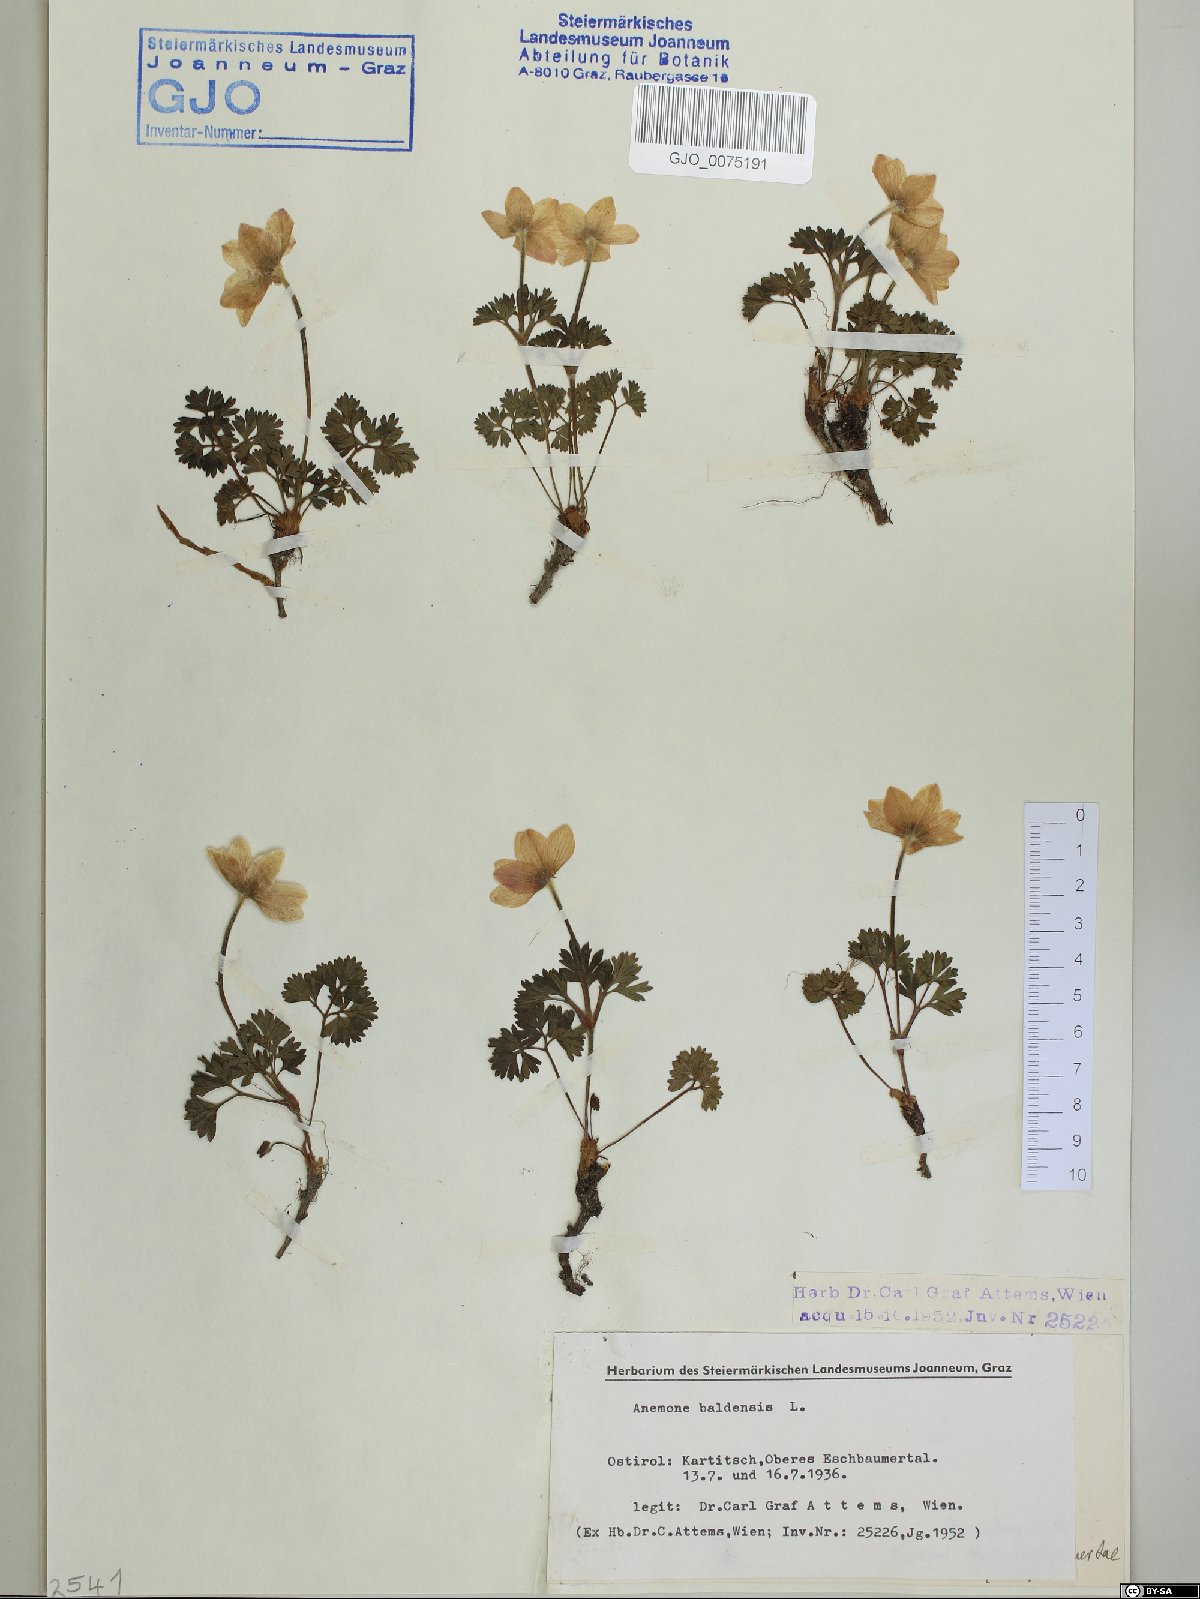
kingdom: Plantae
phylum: Tracheophyta
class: Magnoliopsida
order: Ranunculales
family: Ranunculaceae
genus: Anemone
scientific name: Anemone baldensis
